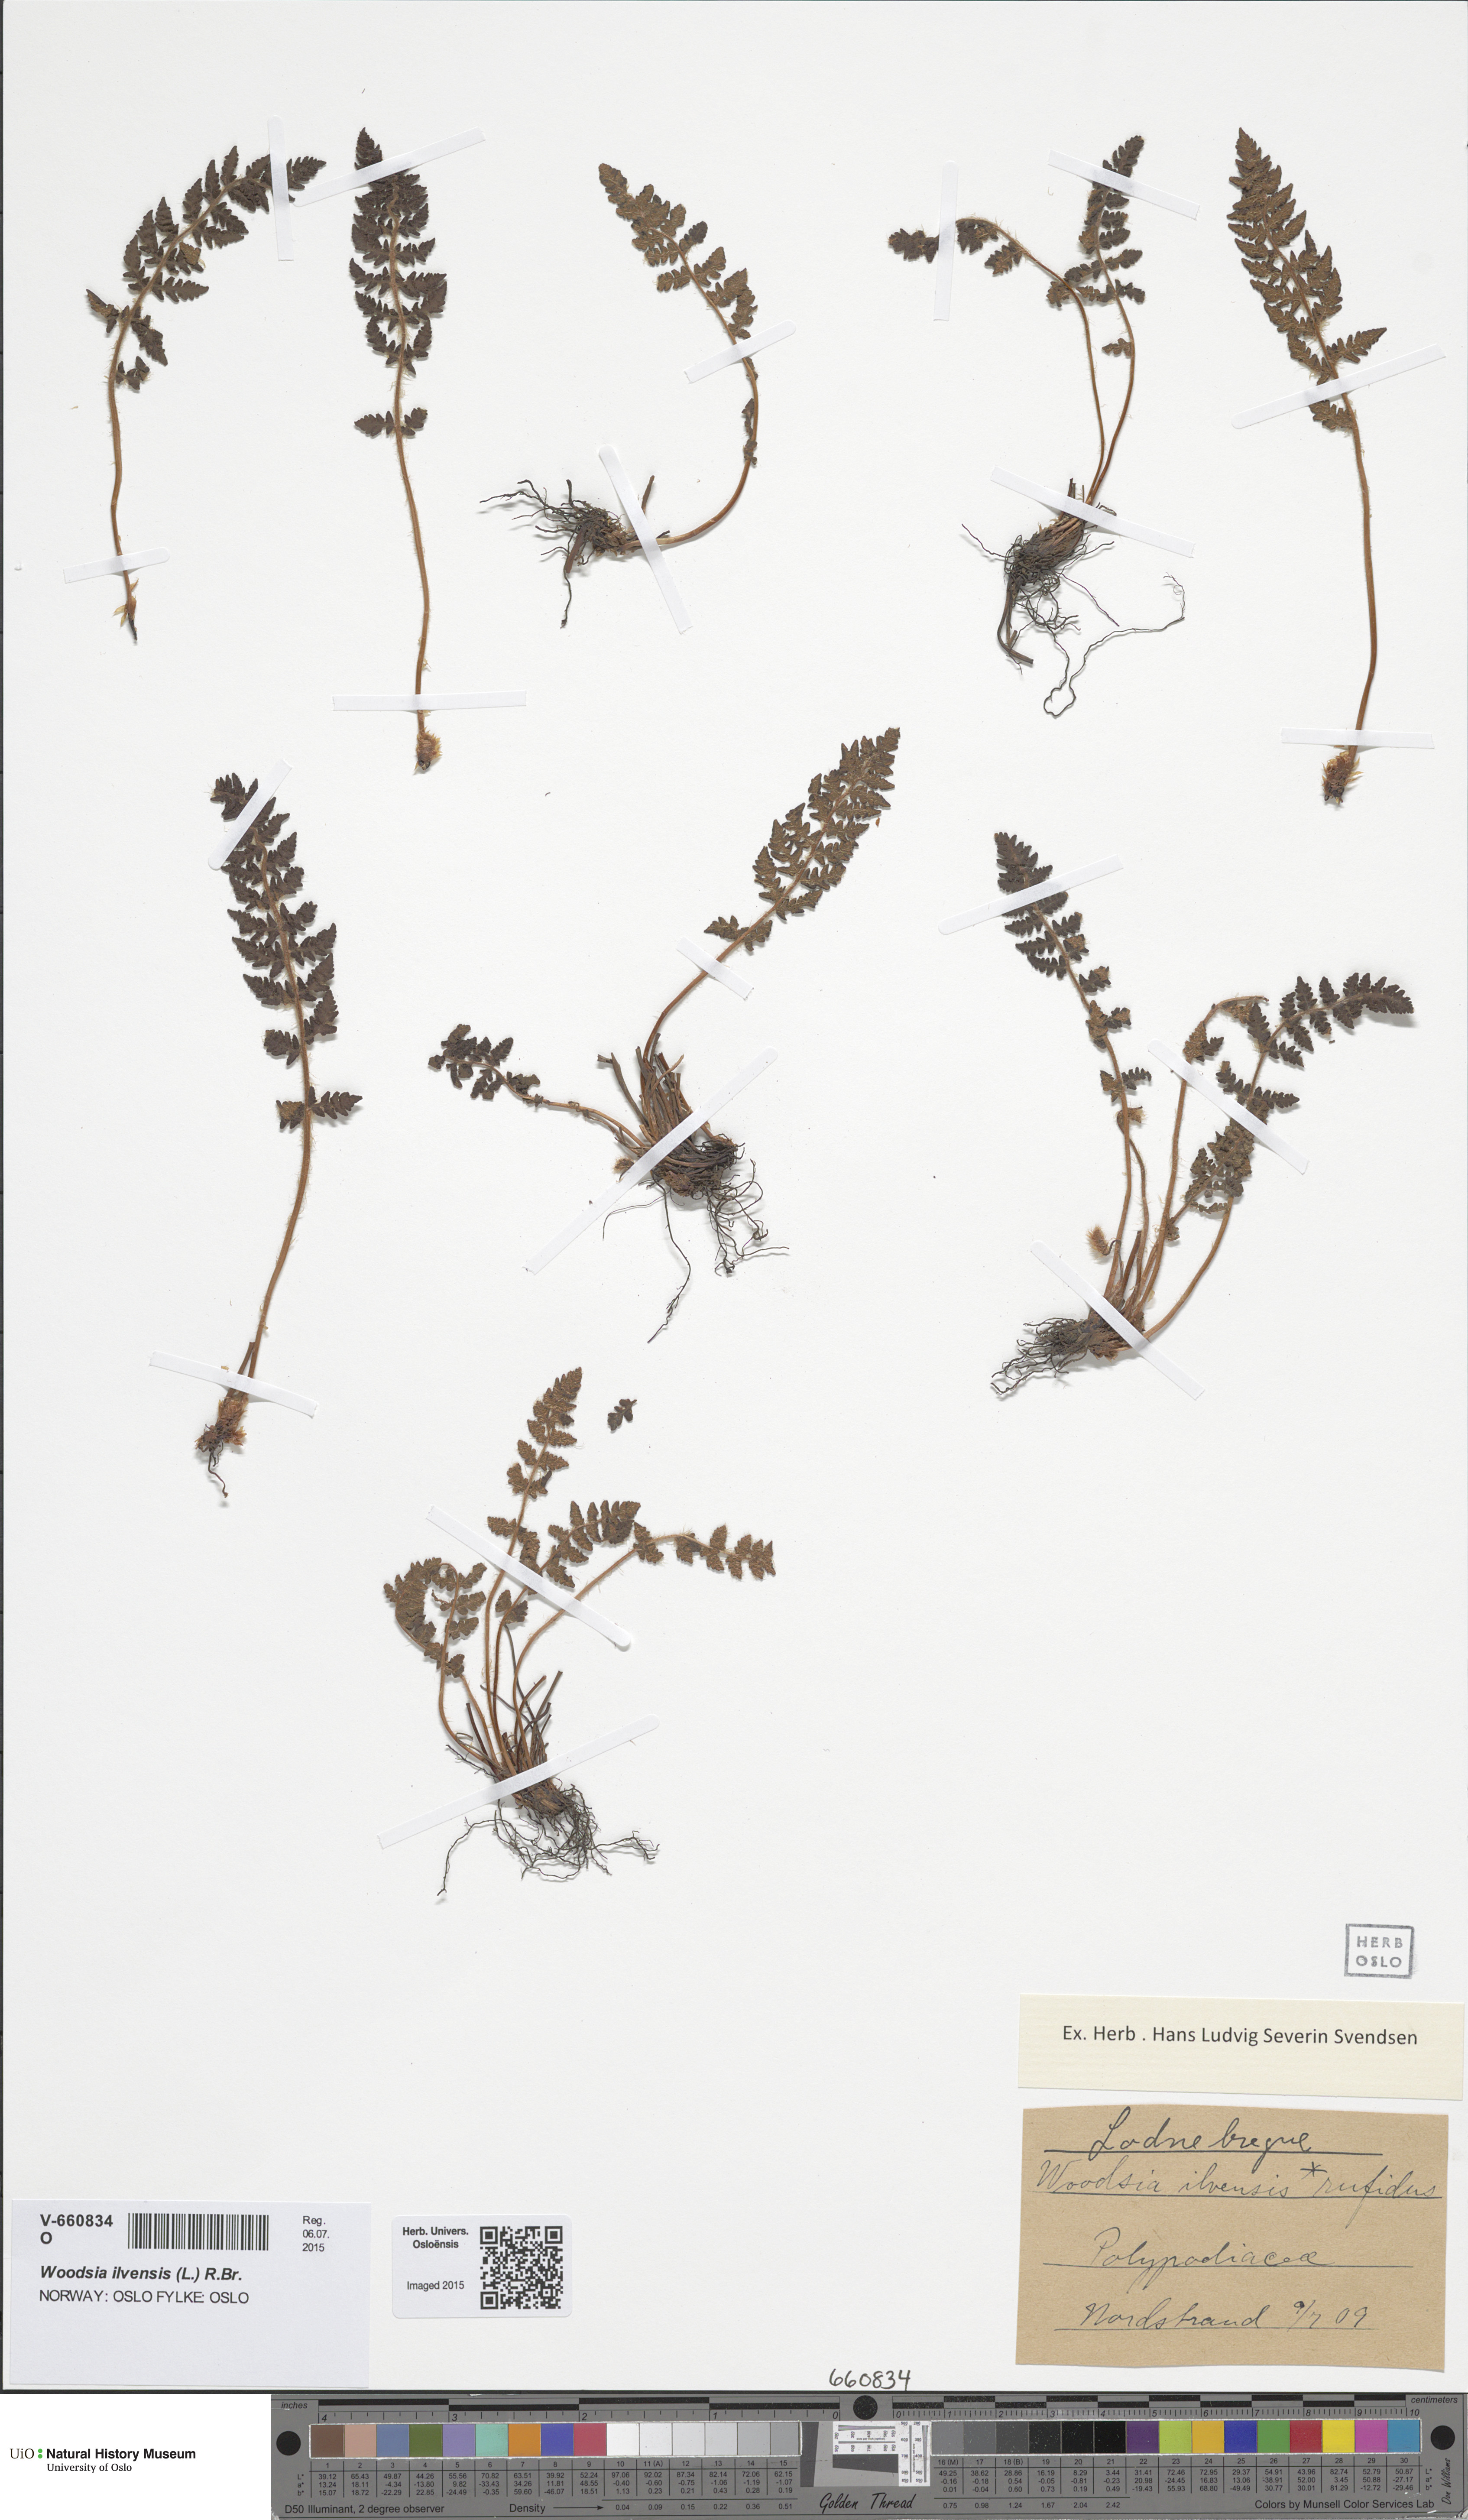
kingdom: Plantae
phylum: Tracheophyta
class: Polypodiopsida
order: Polypodiales
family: Woodsiaceae
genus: Woodsia
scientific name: Woodsia ilvensis
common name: Fragrant woodsia
